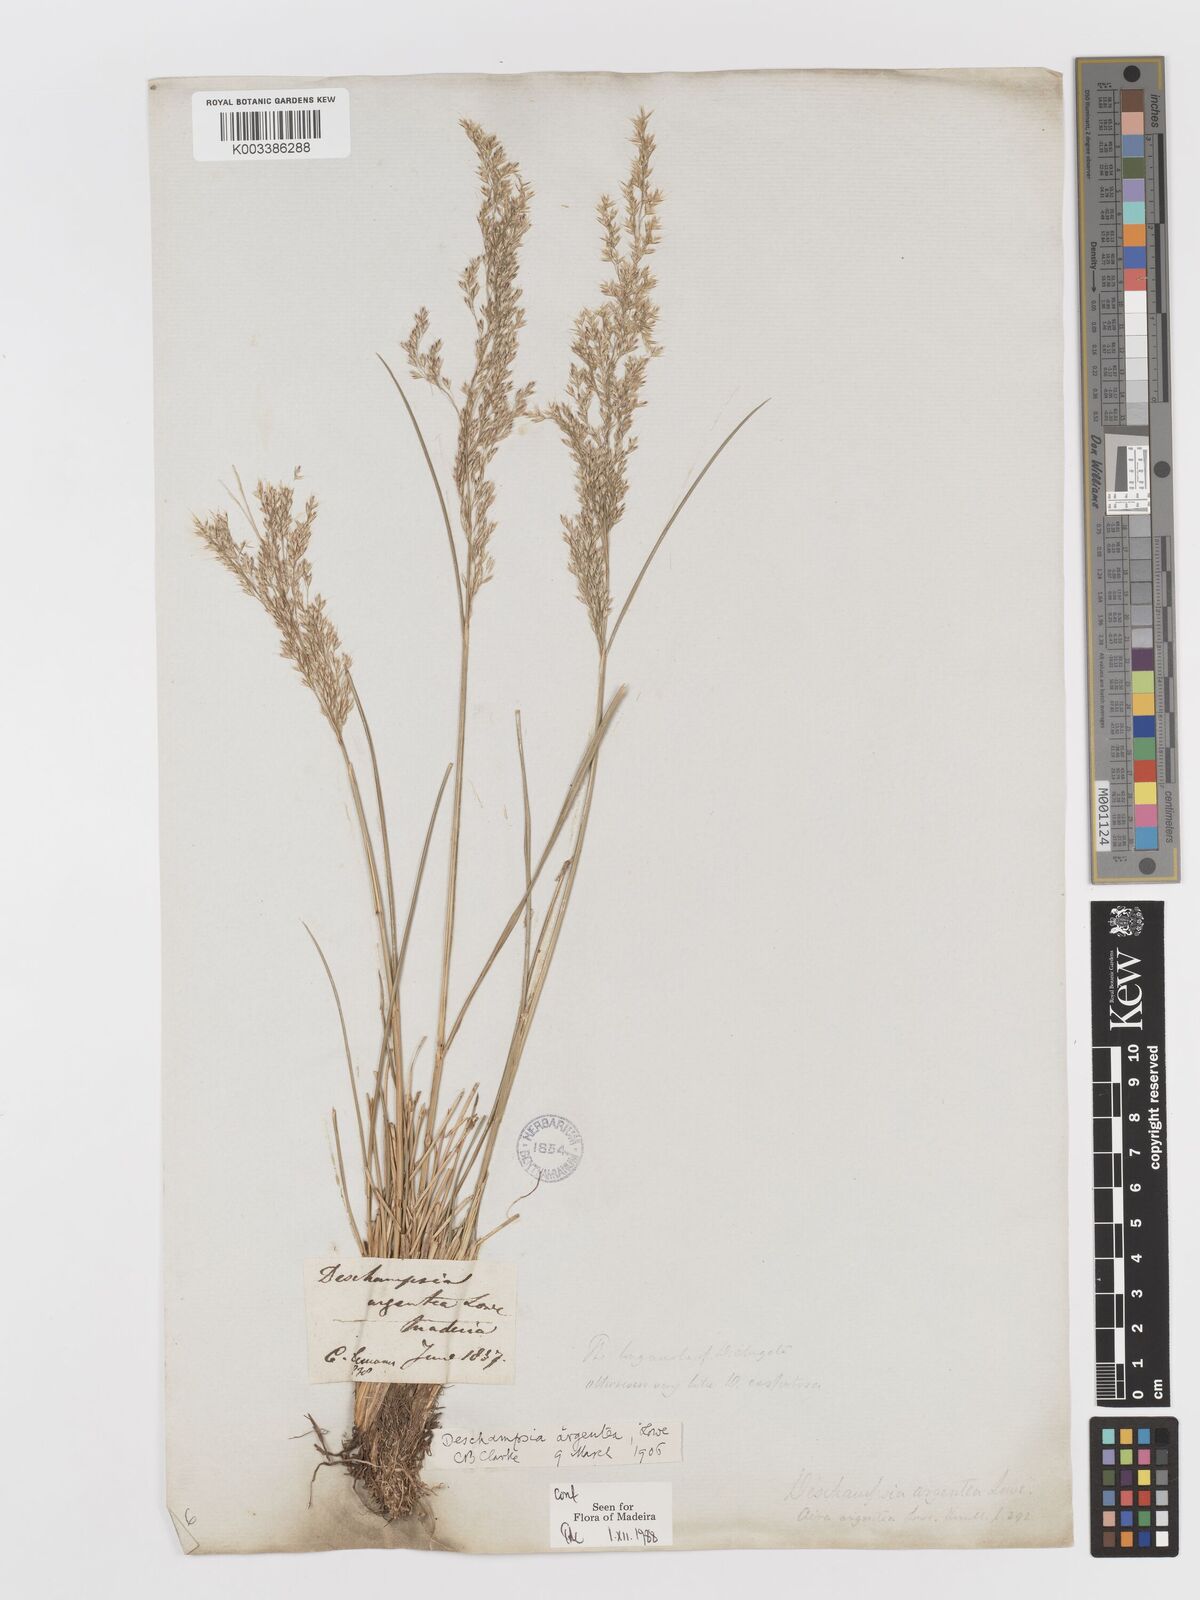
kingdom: Plantae
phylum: Tracheophyta
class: Liliopsida
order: Poales
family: Poaceae
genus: Deschampsia
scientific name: Deschampsia argentea
